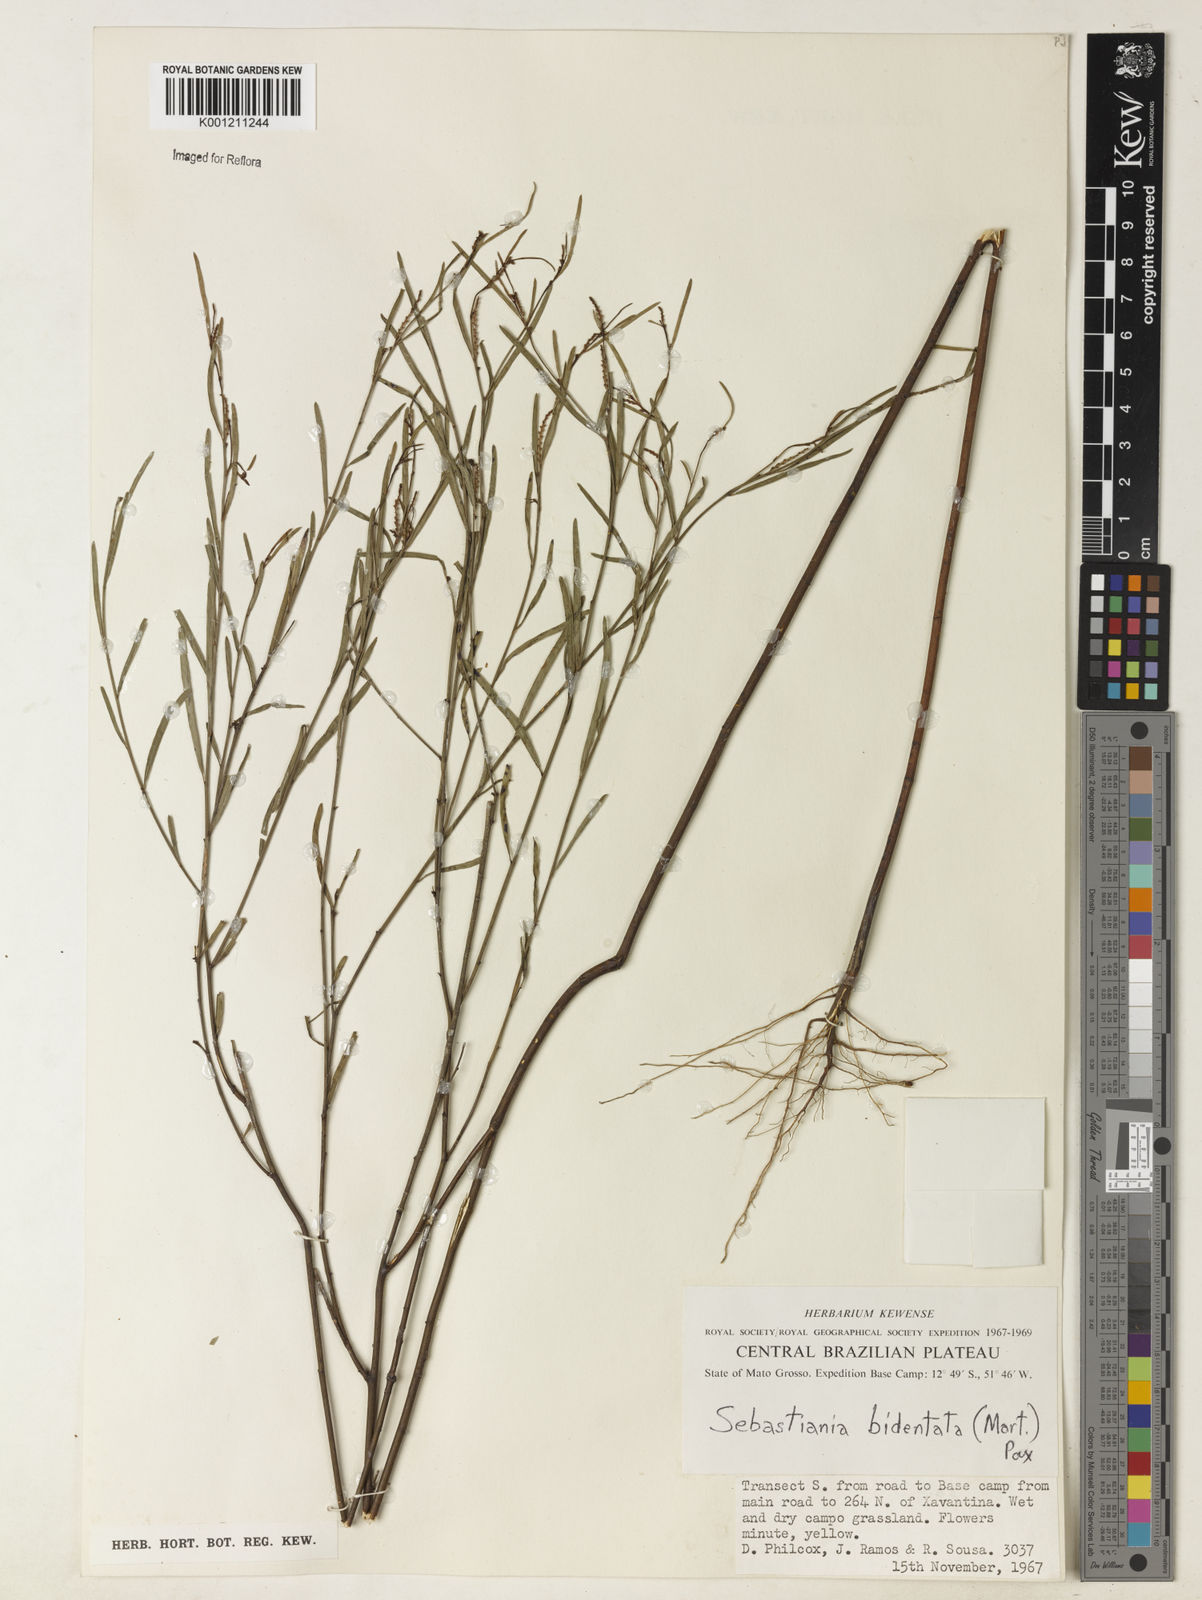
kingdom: Plantae
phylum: Tracheophyta
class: Magnoliopsida
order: Malpighiales
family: Euphorbiaceae
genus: Microstachys
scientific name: Microstachys bidentata
